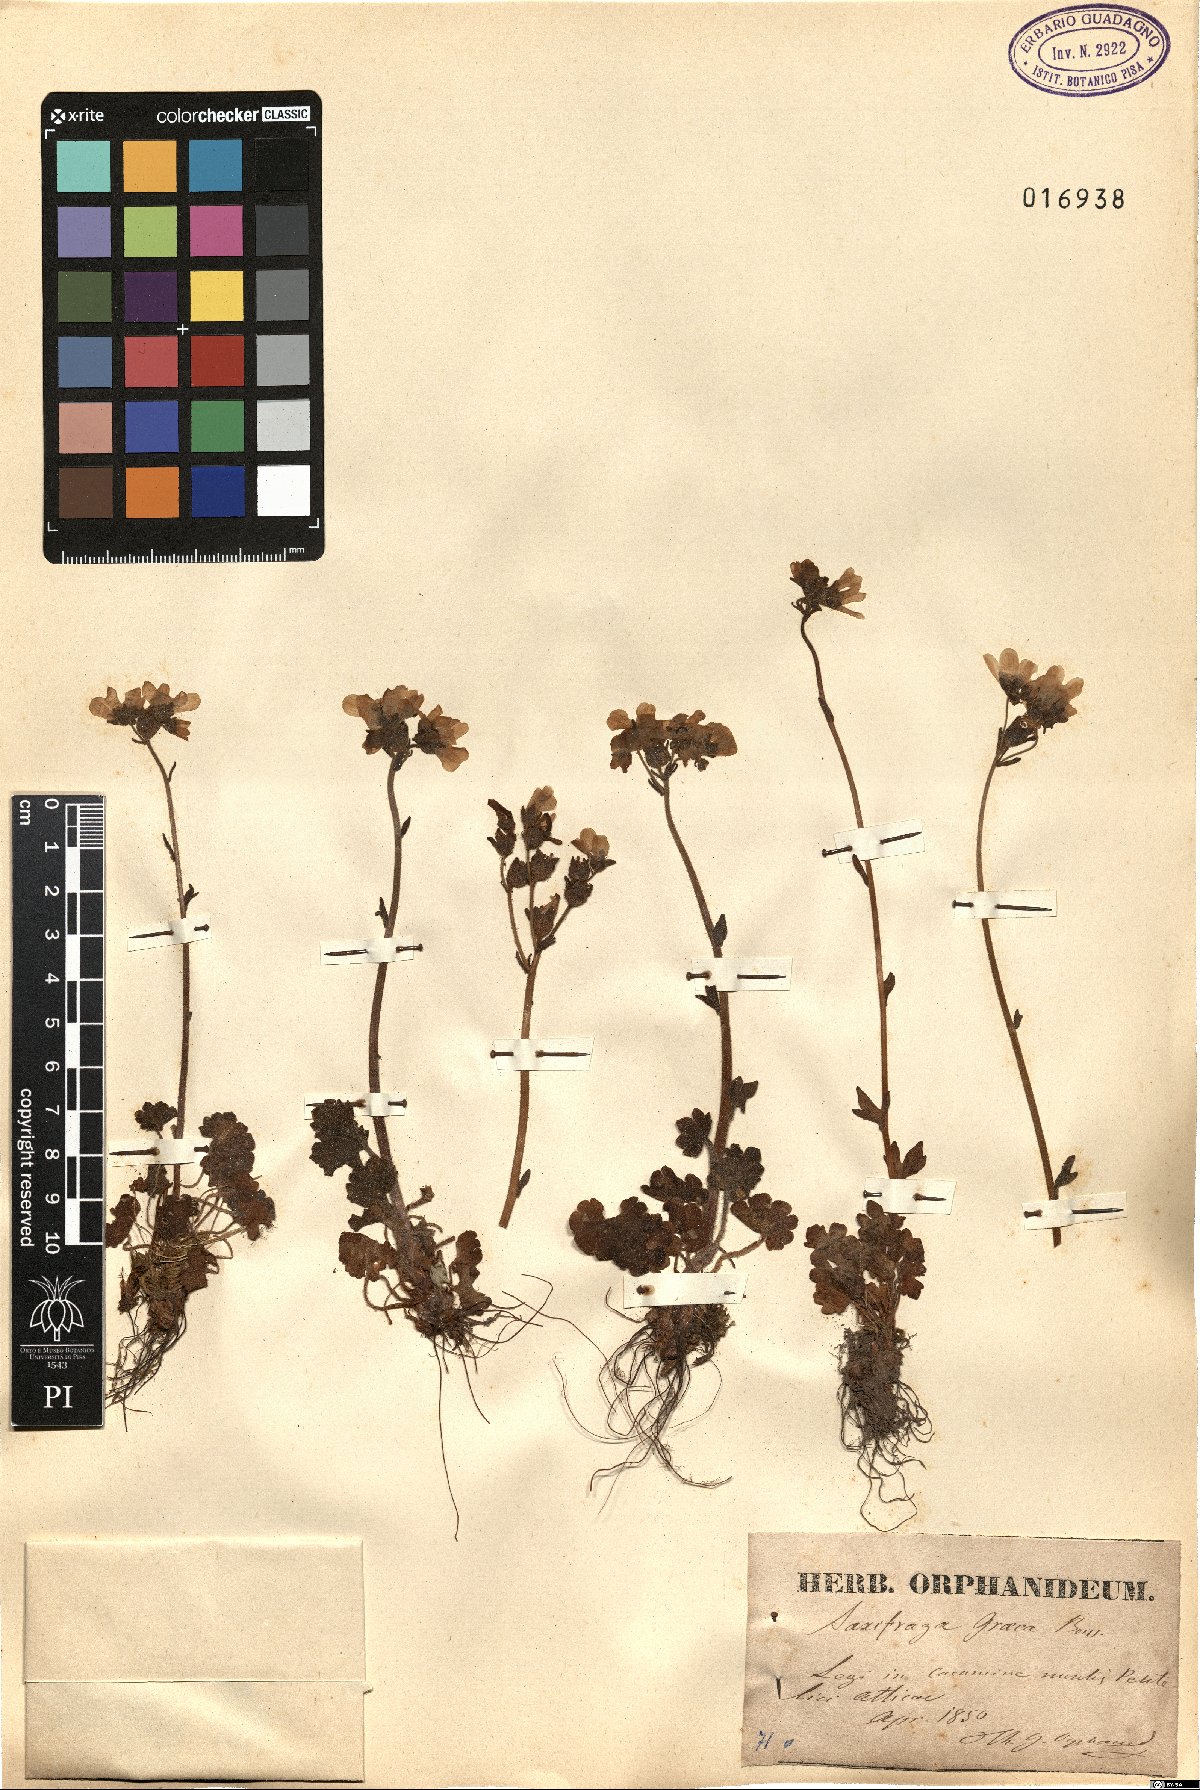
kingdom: Plantae
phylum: Tracheophyta
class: Magnoliopsida
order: Saxifragales
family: Saxifragaceae
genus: Saxifraga
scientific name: Saxifraga carpetana
